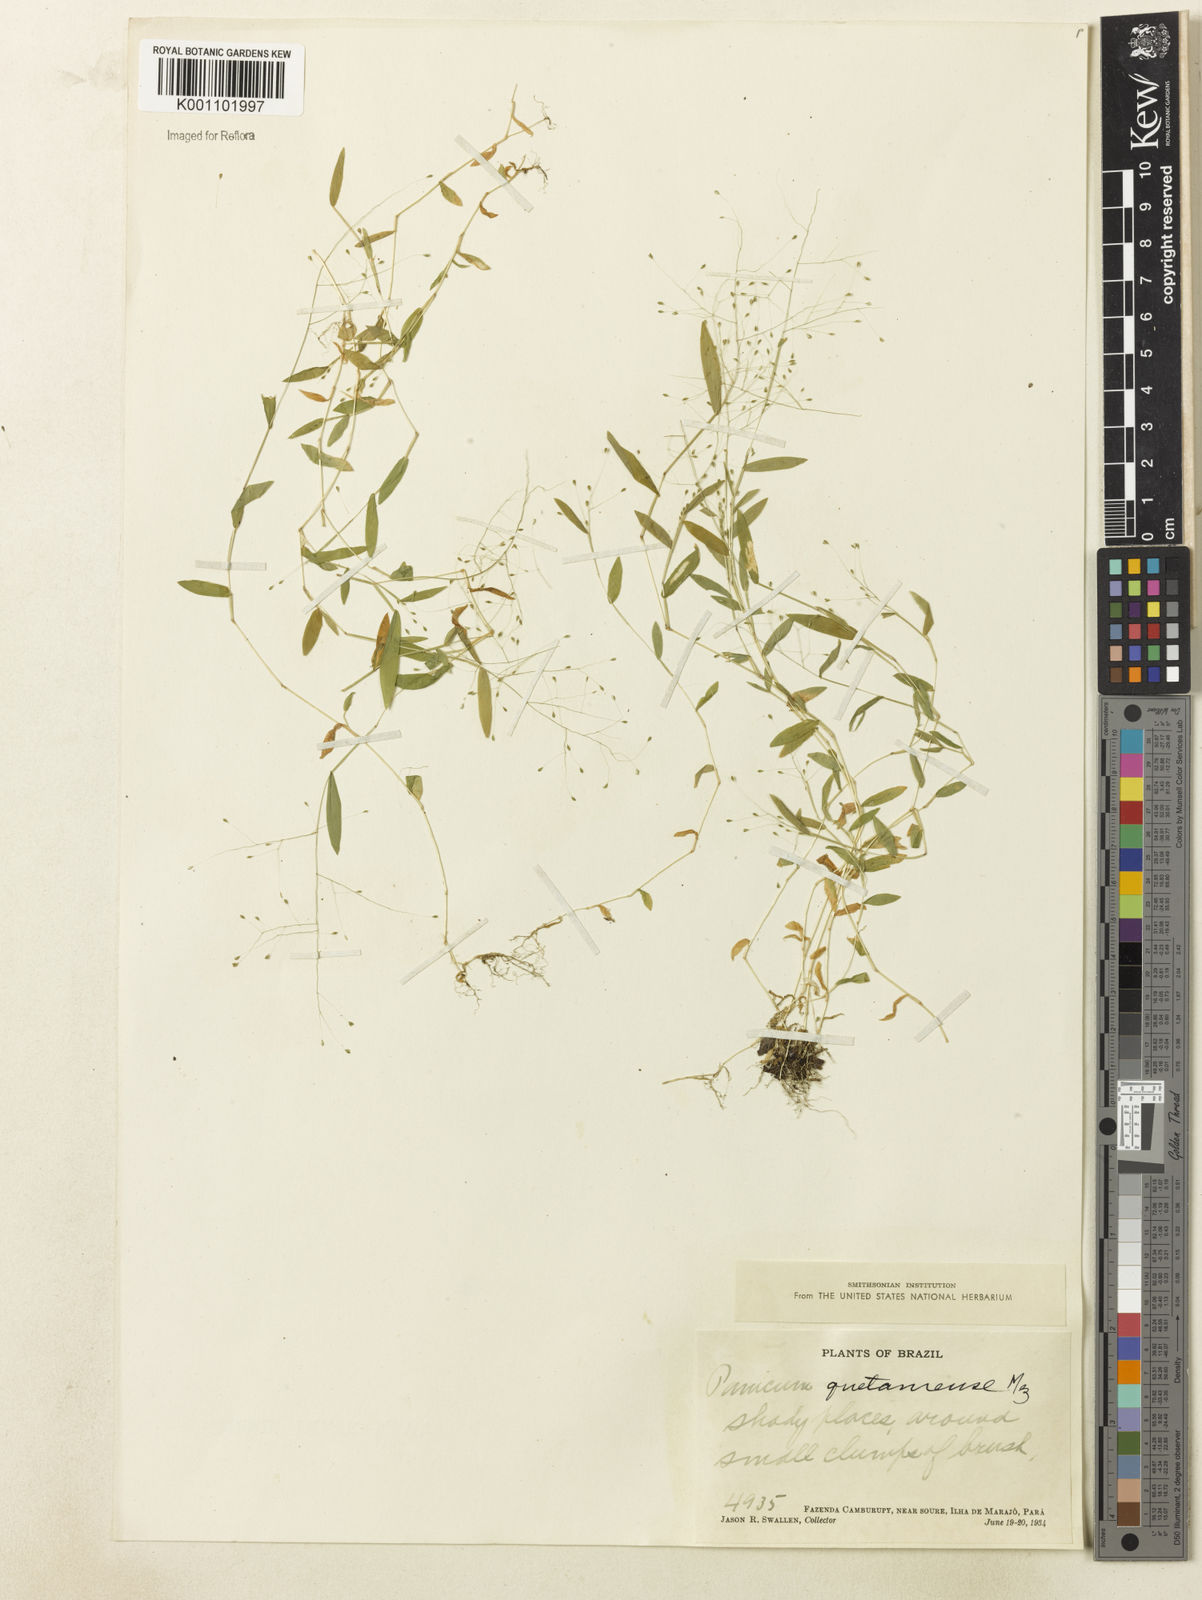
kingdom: Plantae
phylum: Tracheophyta
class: Liliopsida
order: Poales
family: Poaceae
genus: Trichanthecium
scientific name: Trichanthecium pyrularium
